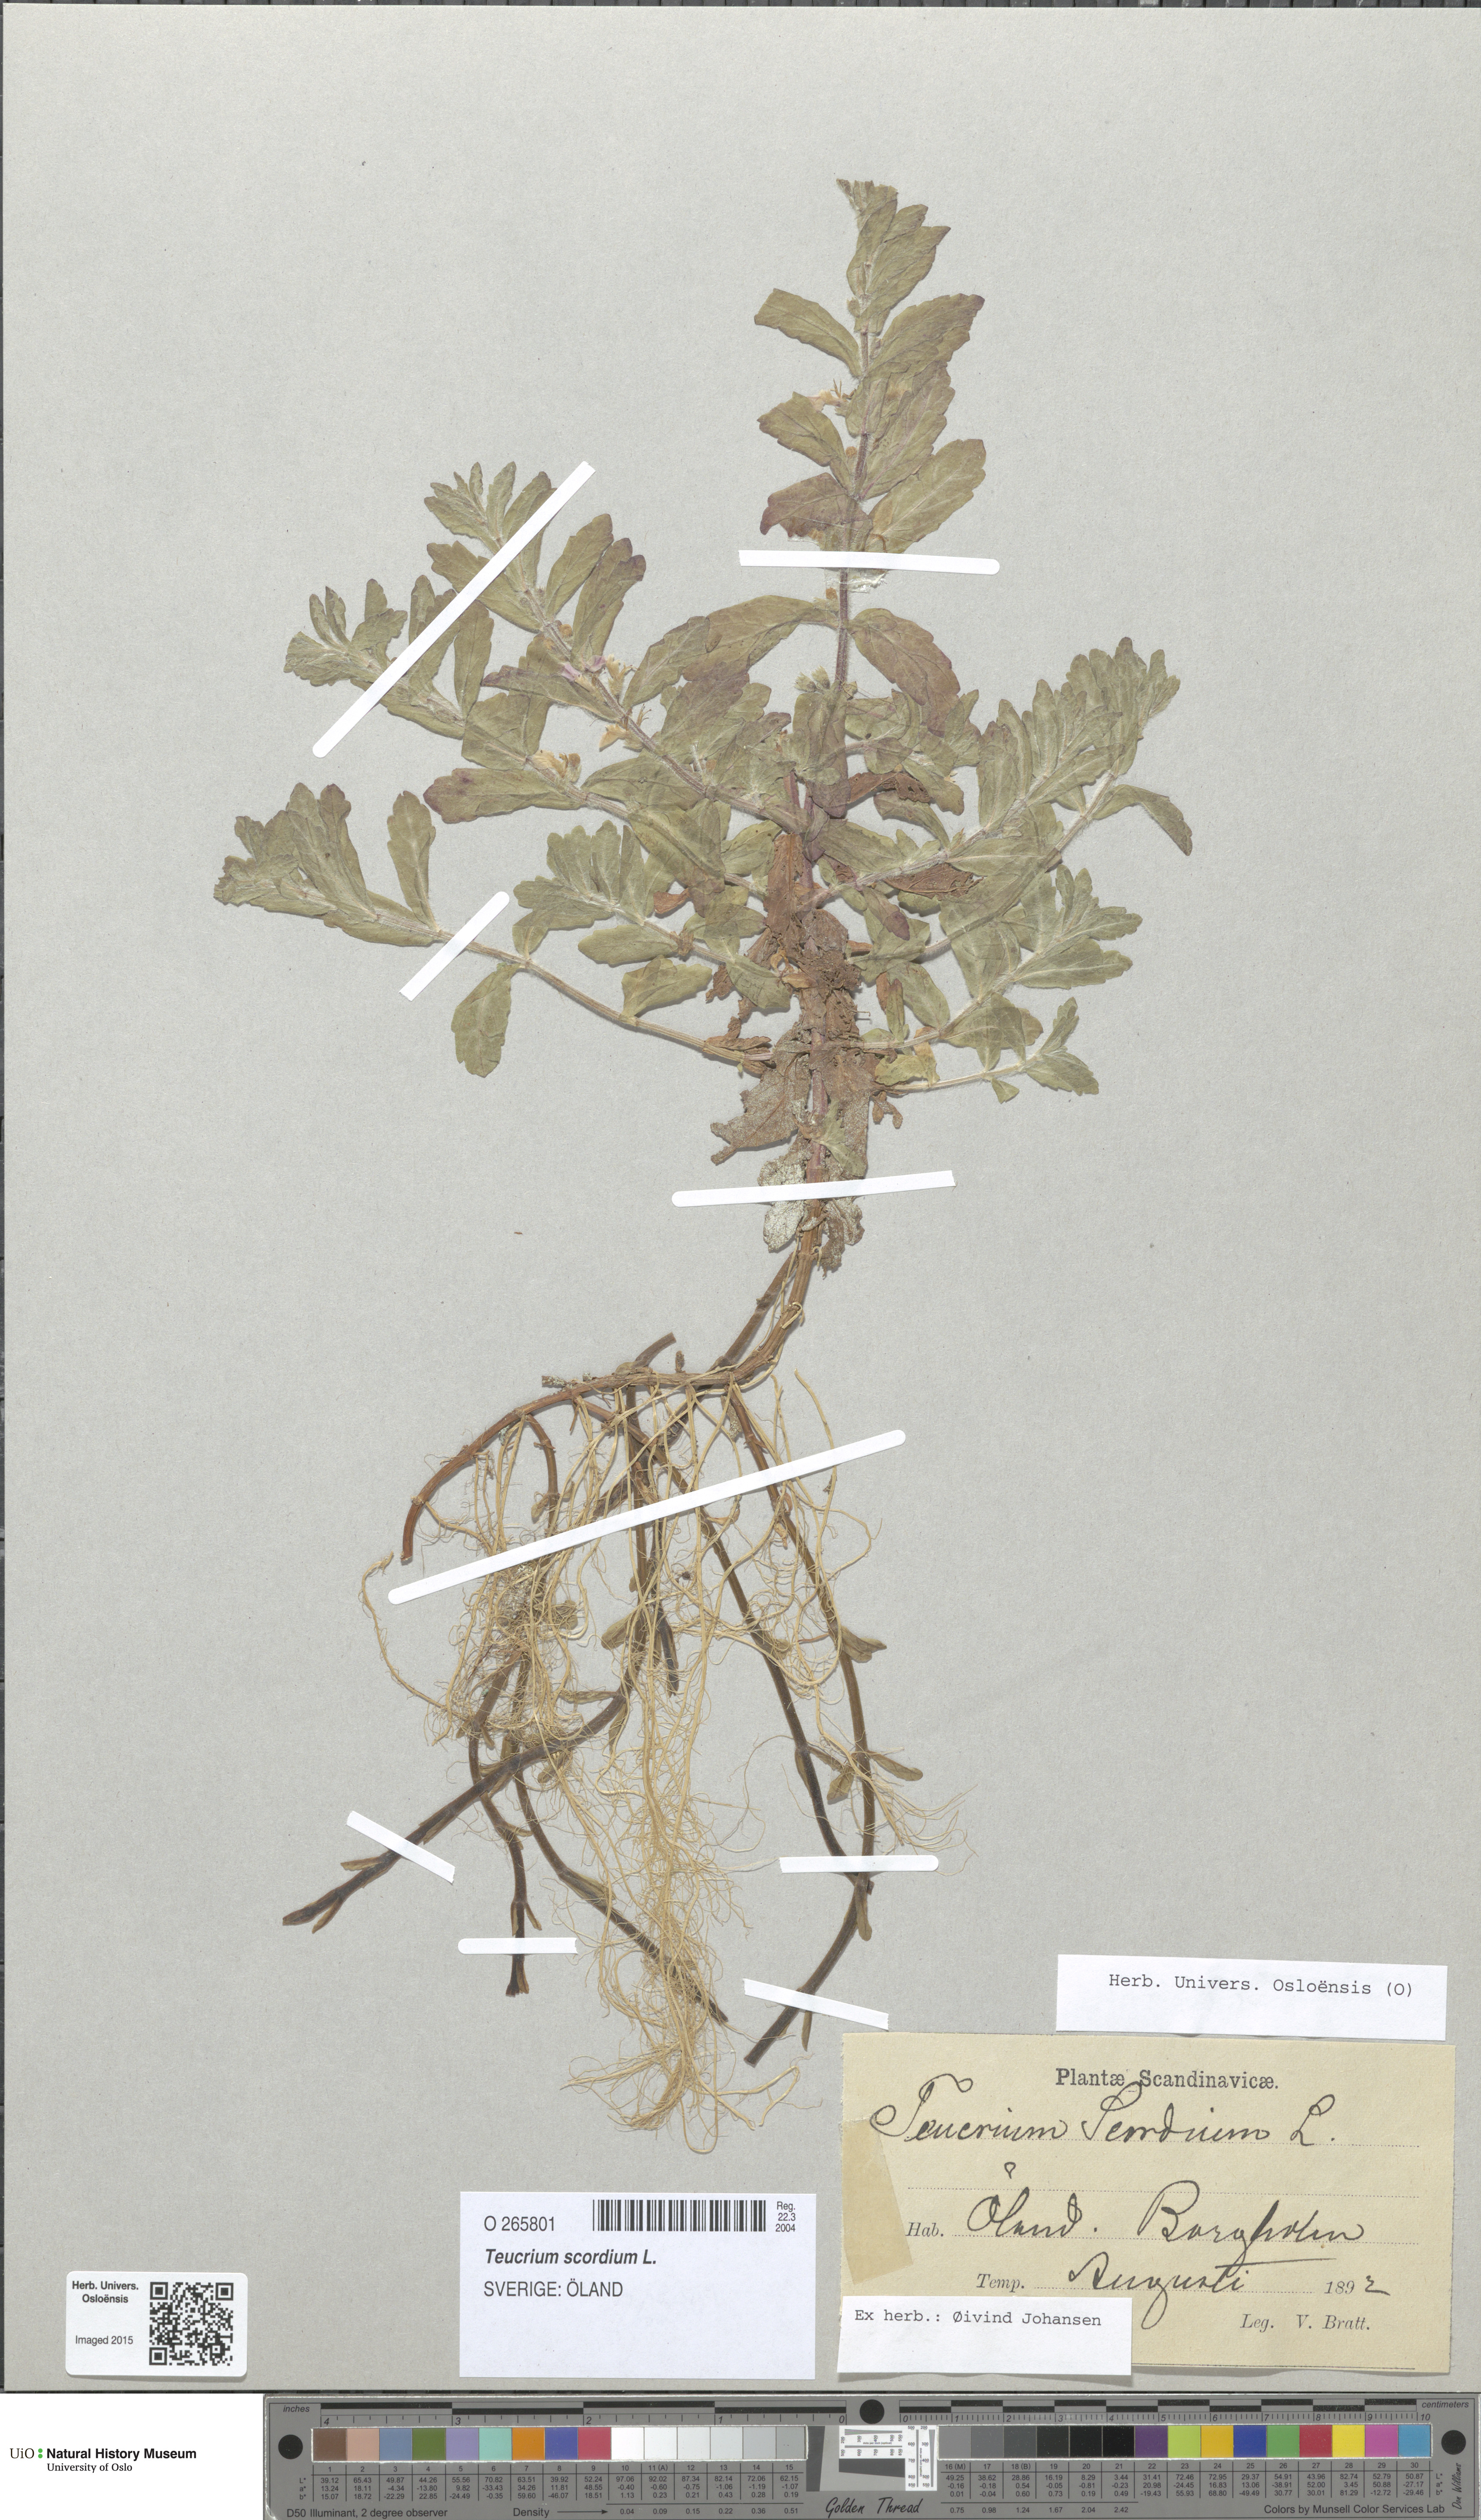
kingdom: Plantae
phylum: Tracheophyta
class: Magnoliopsida
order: Lamiales
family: Lamiaceae
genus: Teucrium
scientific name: Teucrium scordium
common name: Water germander
